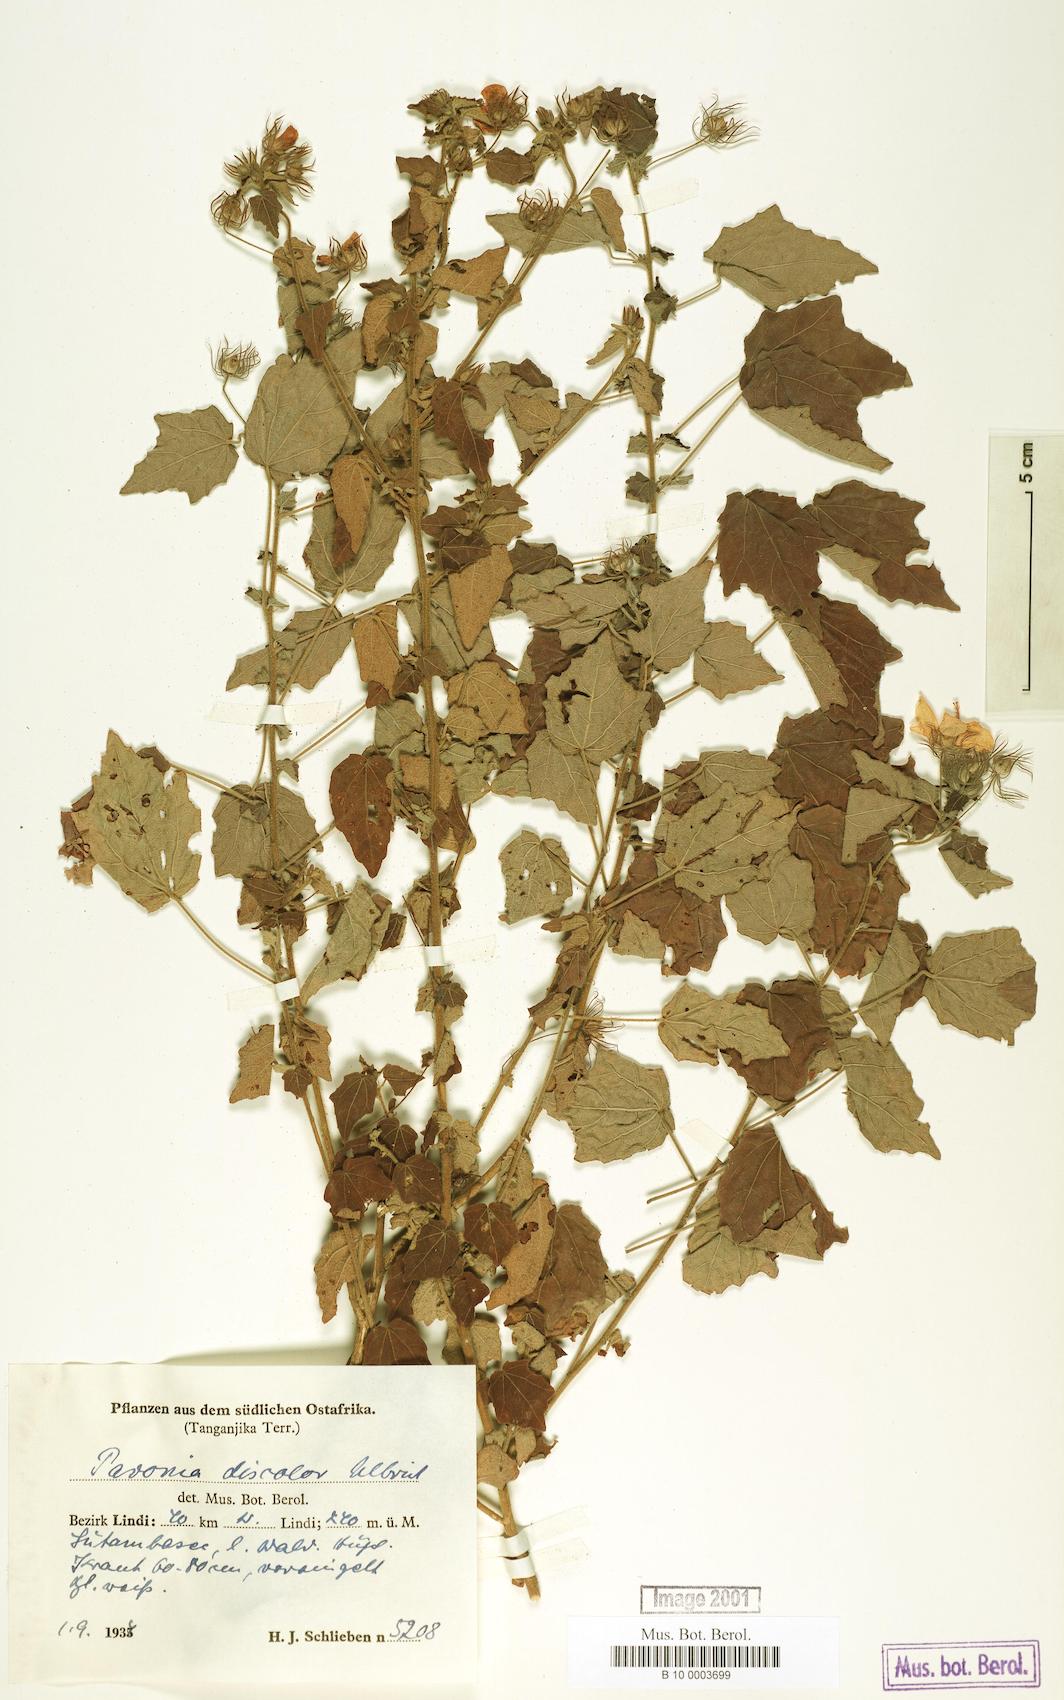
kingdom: Plantae
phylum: Tracheophyta
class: Magnoliopsida
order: Malvales
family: Malvaceae
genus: Pavonia
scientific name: Pavonia leptocalyx
